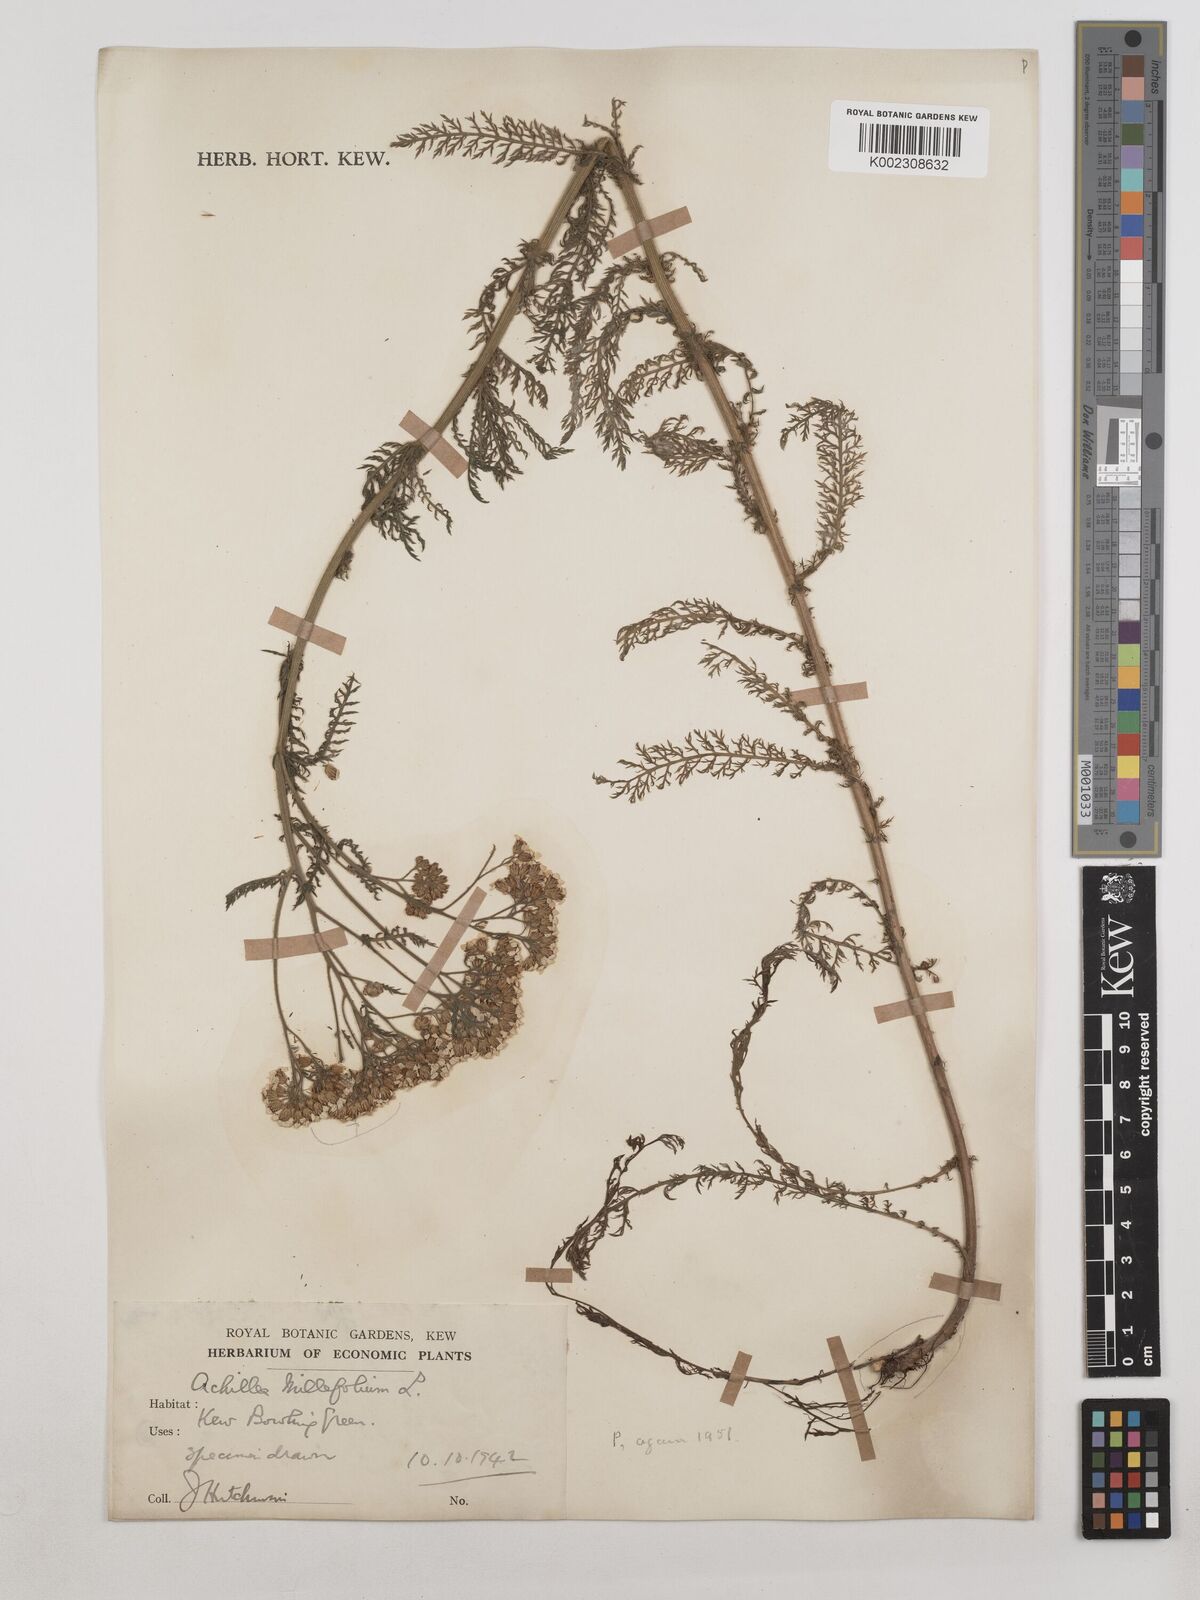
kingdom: Plantae
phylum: Tracheophyta
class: Magnoliopsida
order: Asterales
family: Asteraceae
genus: Achillea
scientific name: Achillea millefolium
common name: Yarrow
